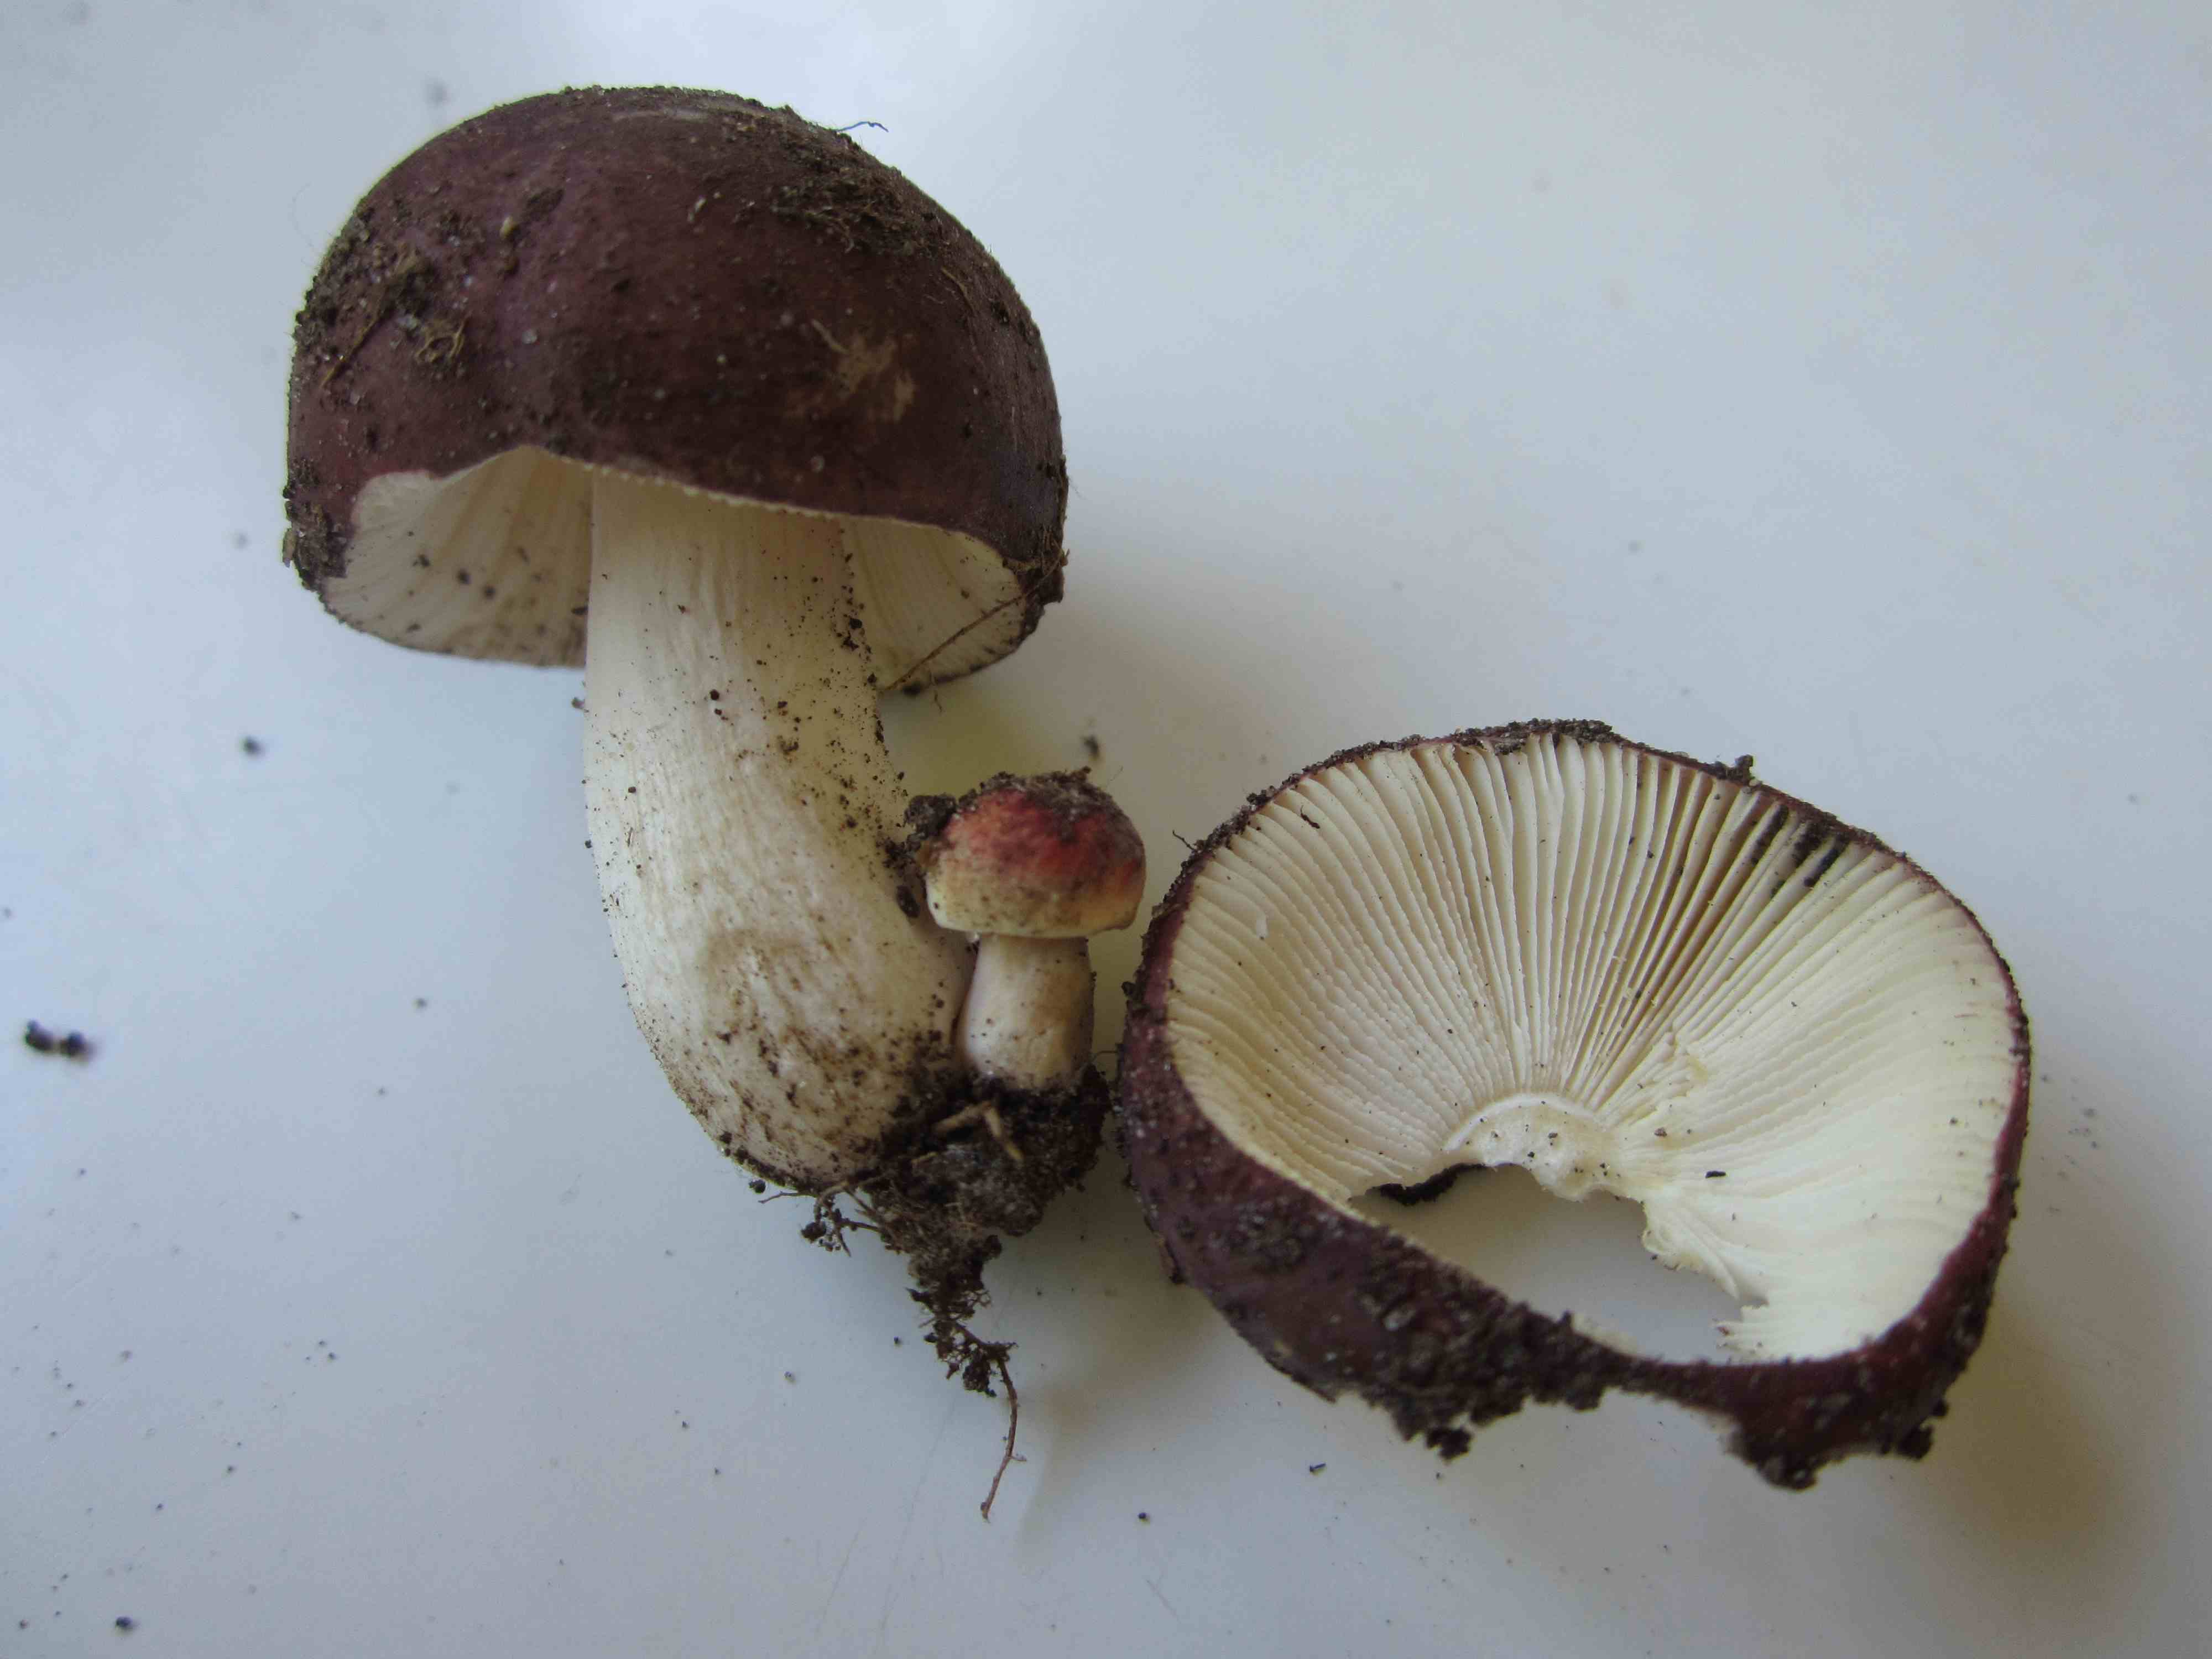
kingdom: Fungi
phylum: Basidiomycota
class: Agaricomycetes
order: Russulales
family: Russulaceae
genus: Russula
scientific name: Russula fragilis
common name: Fragile brittlegill
